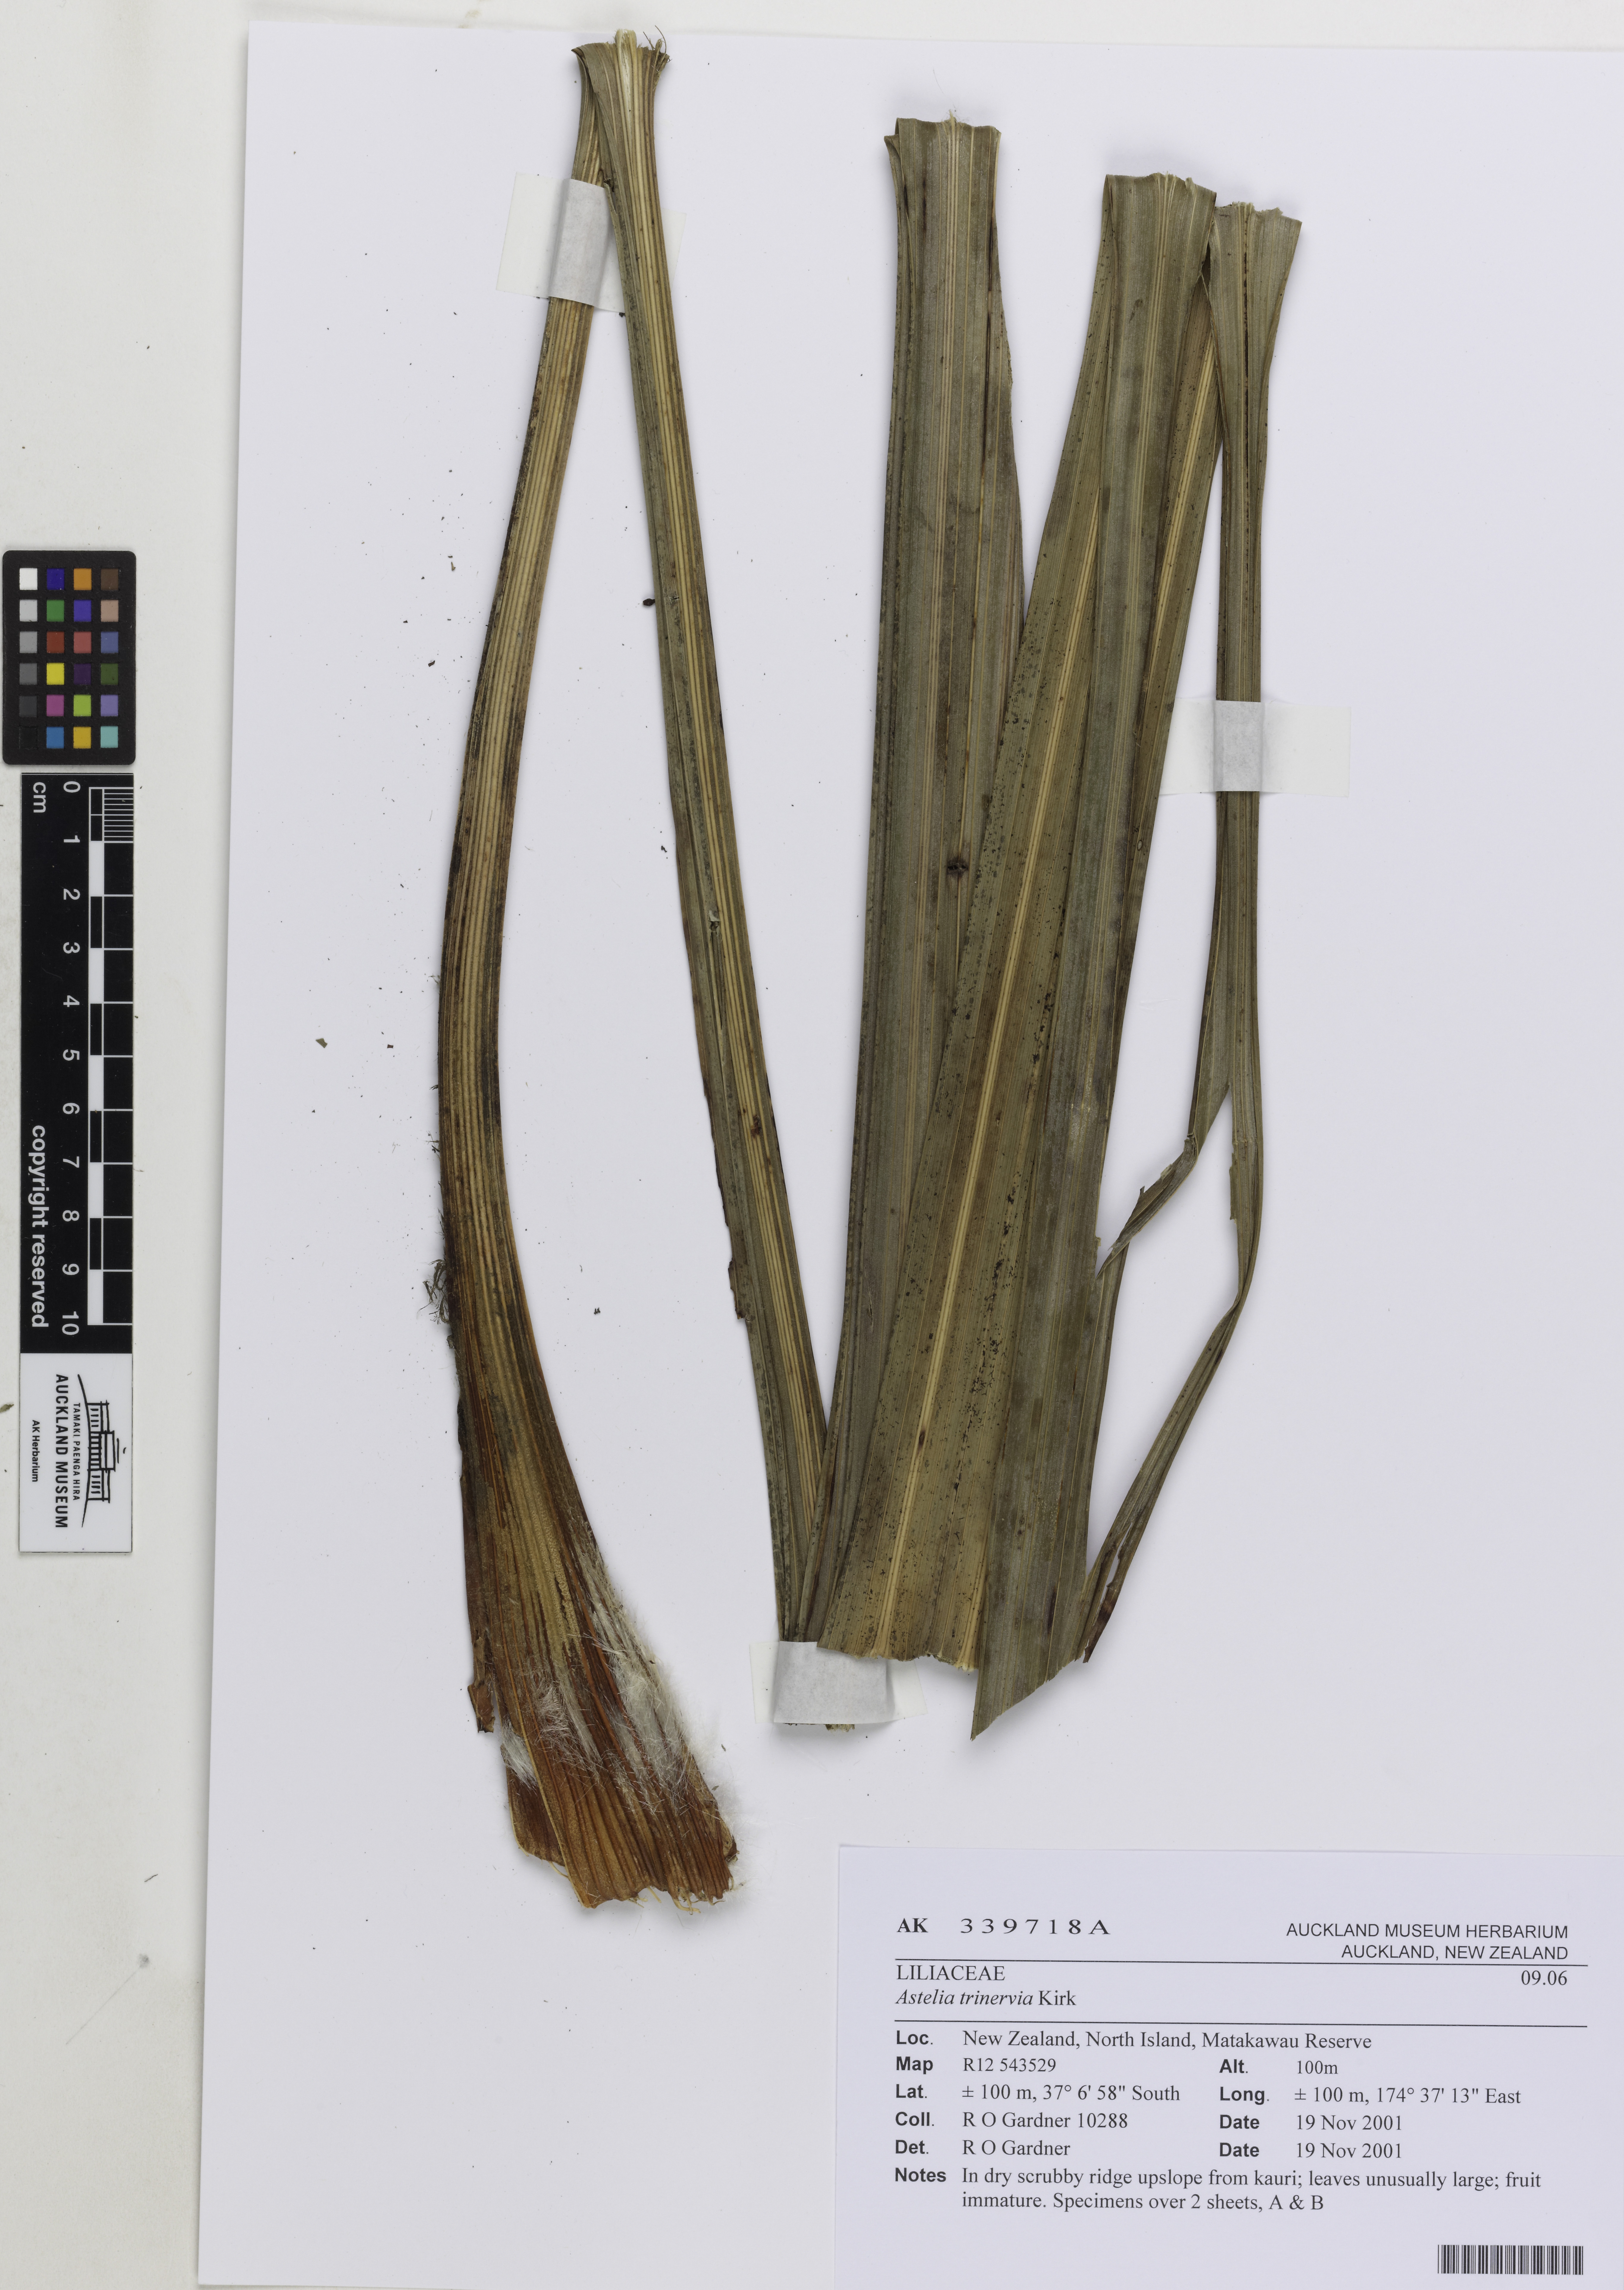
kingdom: Plantae
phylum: Tracheophyta
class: Liliopsida
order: Asparagales
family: Asteliaceae
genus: Astelia
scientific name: Astelia trinervia
